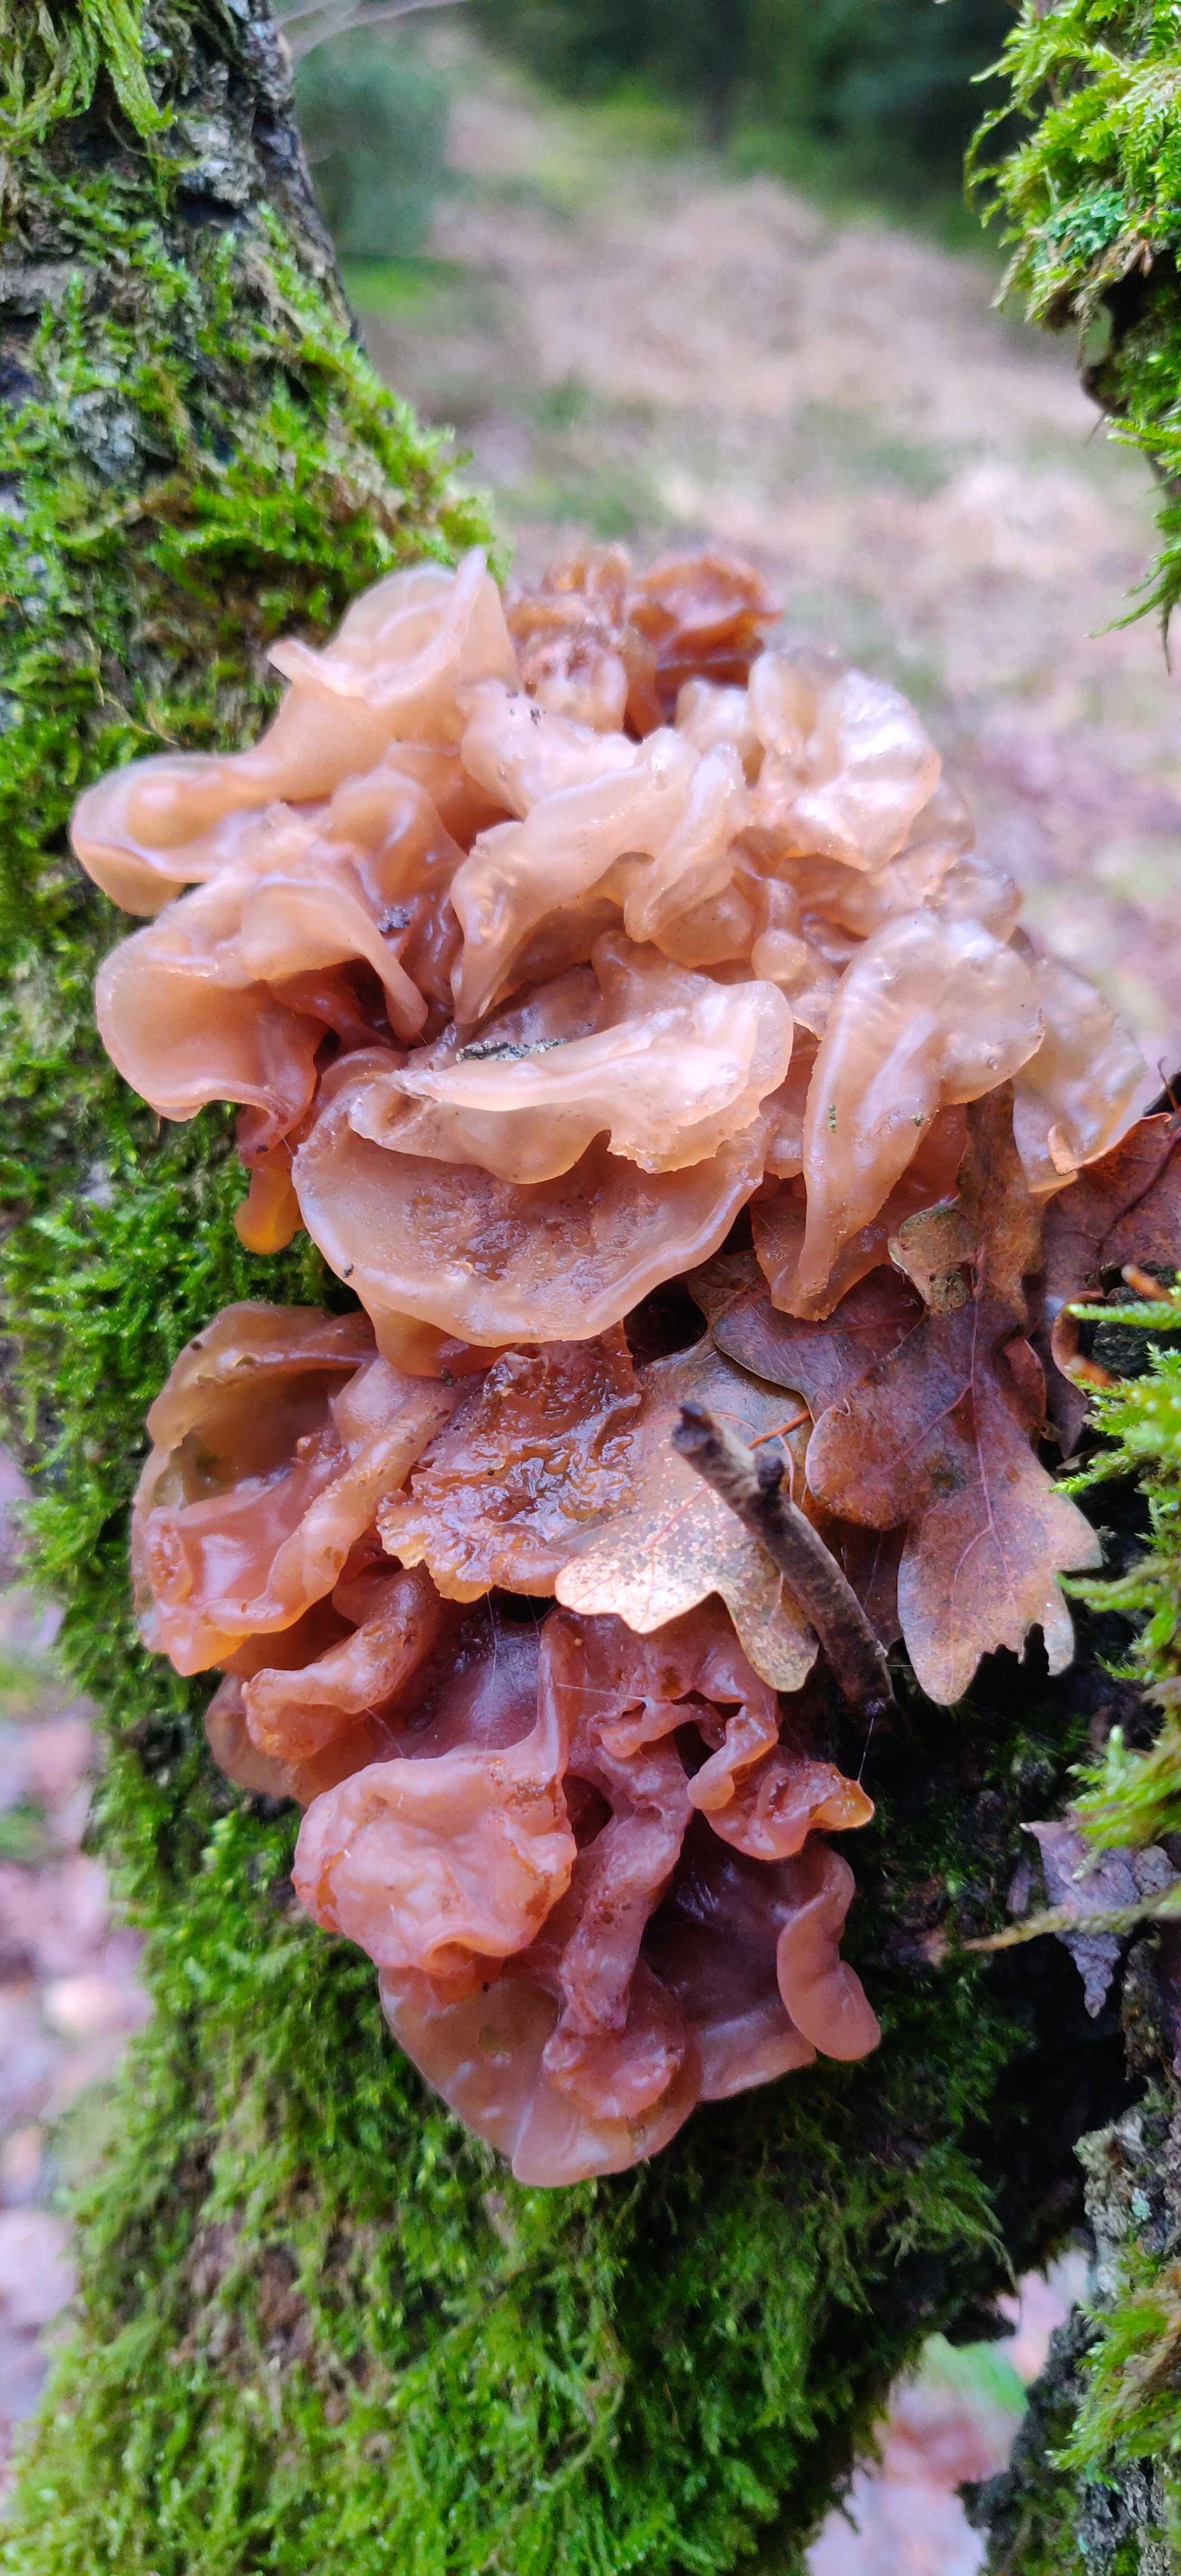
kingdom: Fungi
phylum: Basidiomycota
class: Tremellomycetes
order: Tremellales
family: Tremellaceae
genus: Phaeotremella
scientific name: Phaeotremella foliacea
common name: brun bævresvamp
